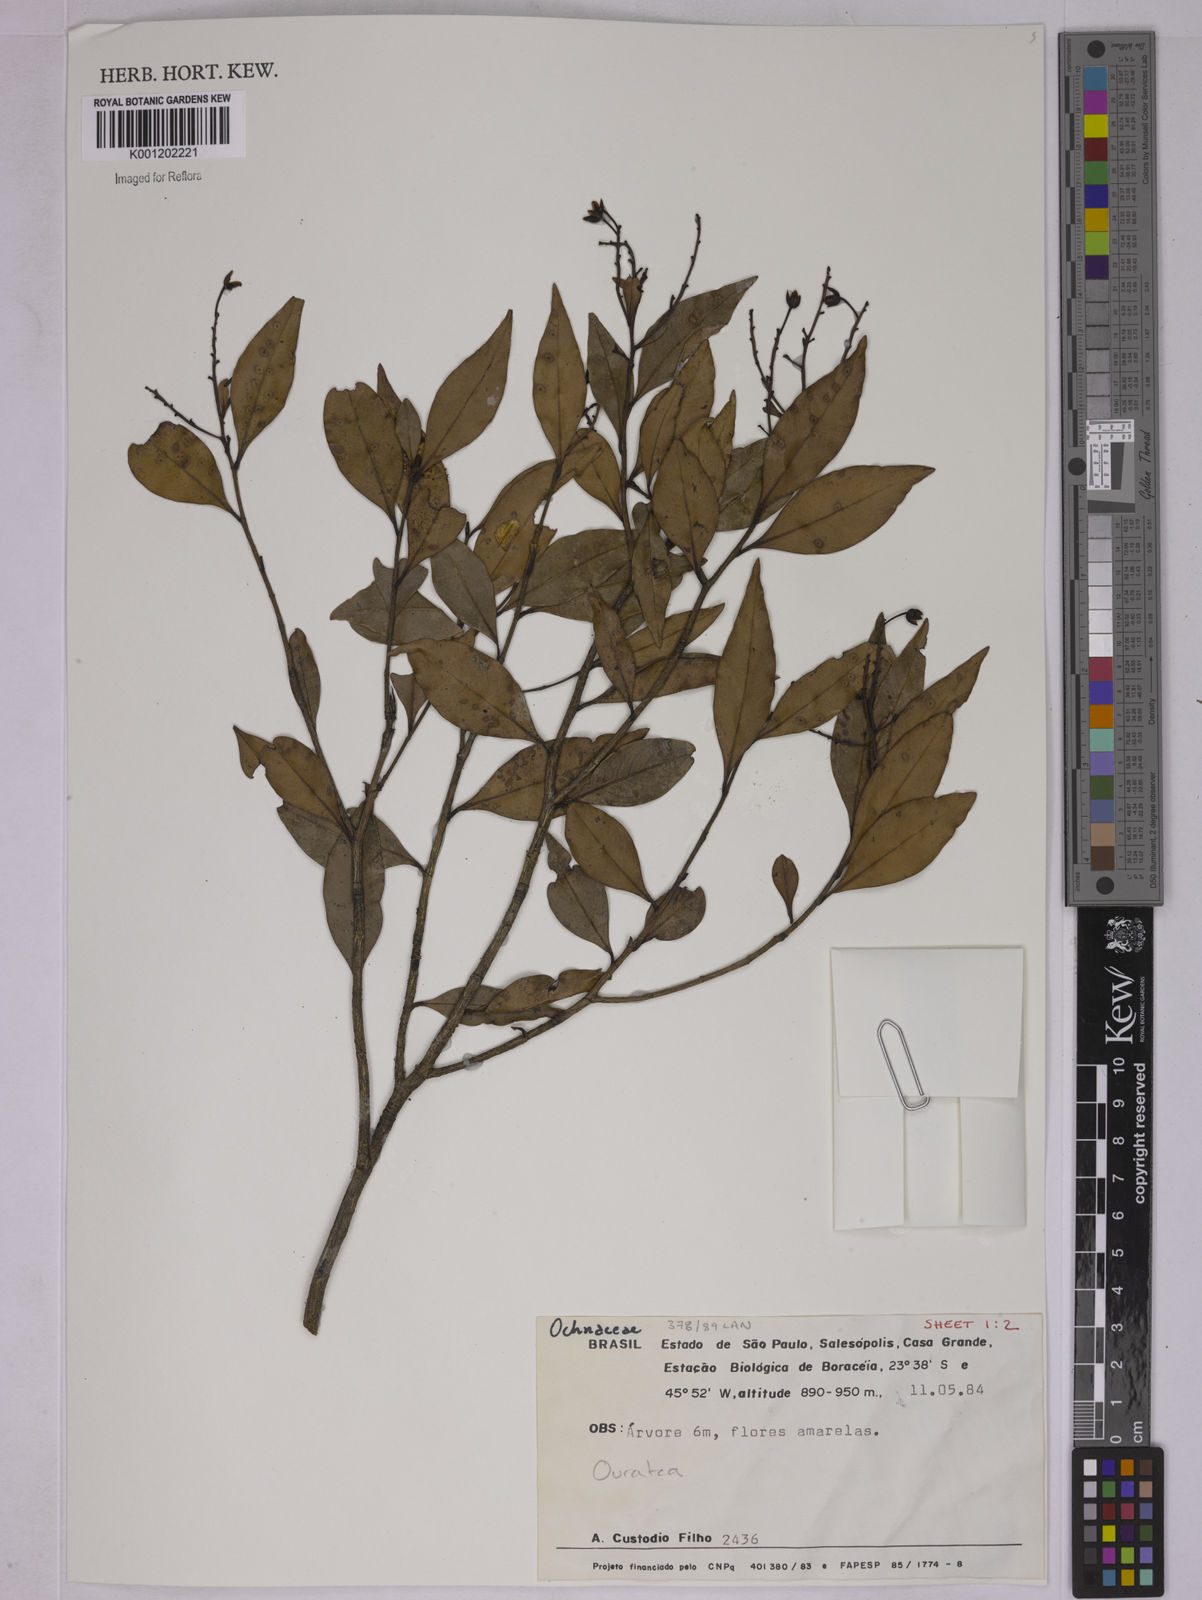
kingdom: Plantae
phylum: Tracheophyta
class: Magnoliopsida
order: Malpighiales
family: Ochnaceae
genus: Ouratea
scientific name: Ouratea
